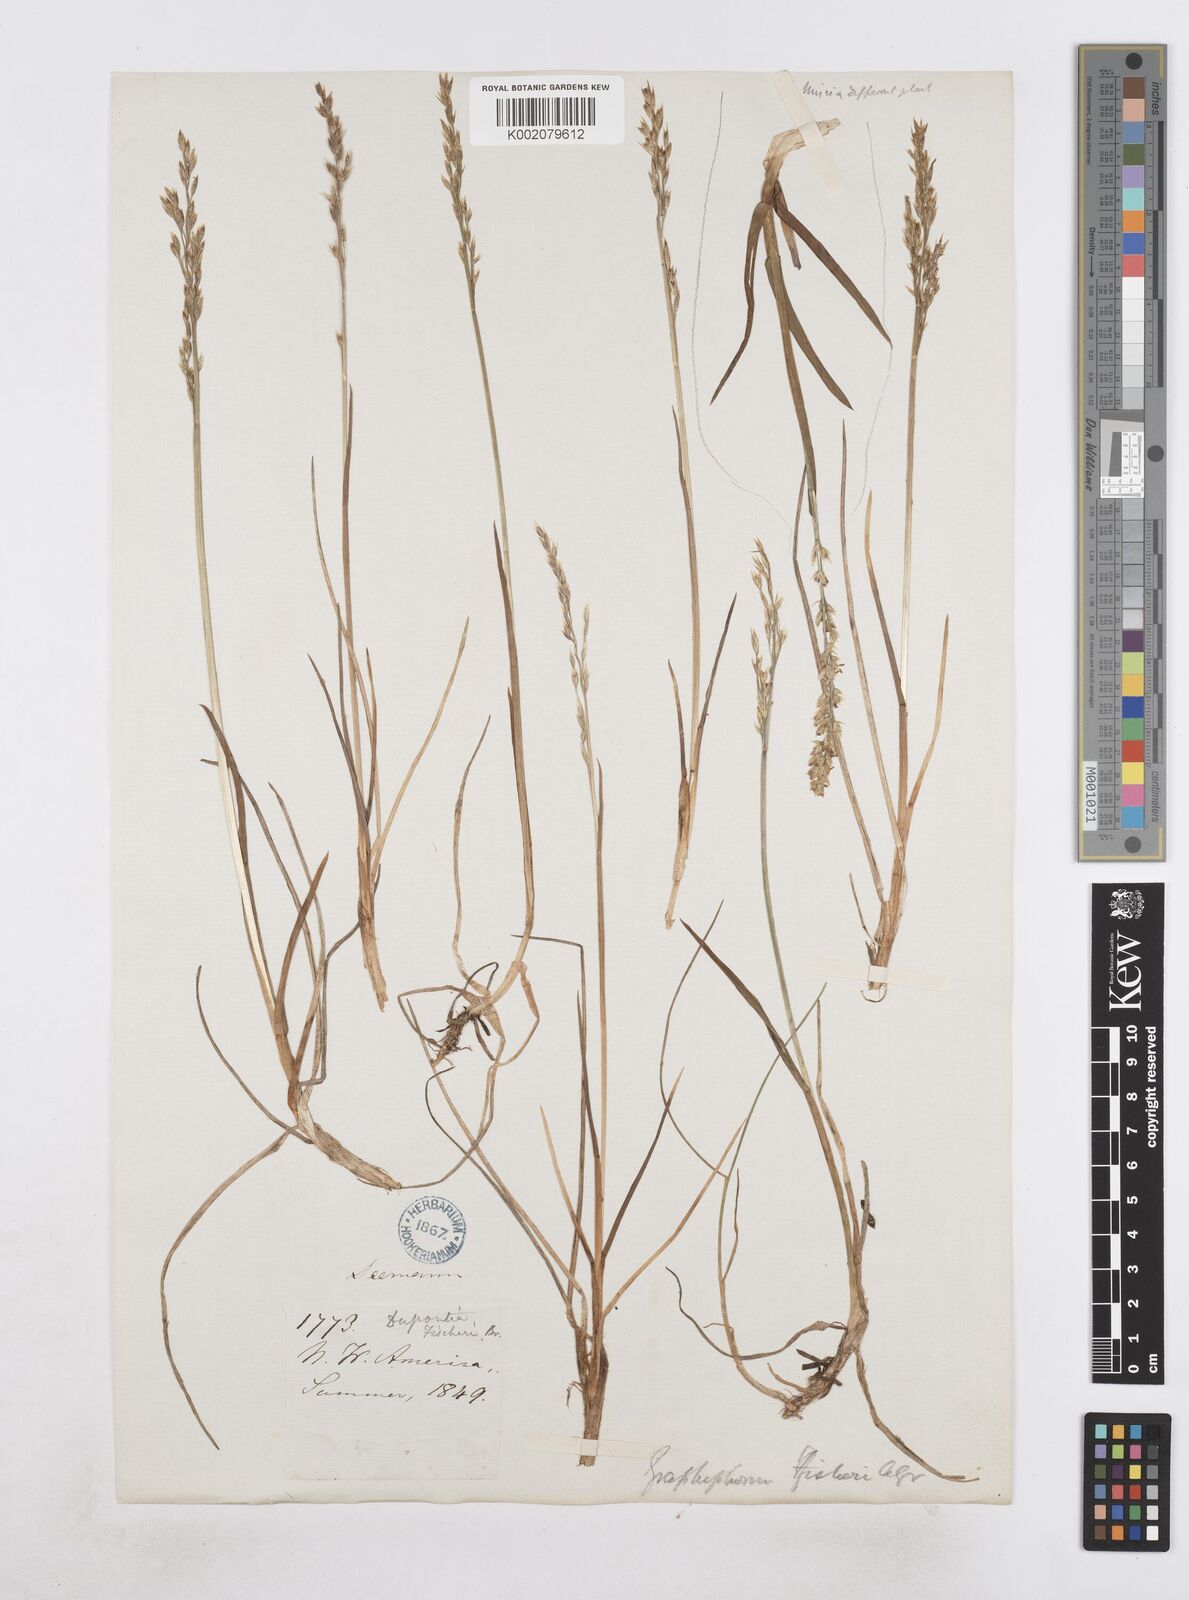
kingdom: Plantae
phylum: Tracheophyta
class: Liliopsida
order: Poales
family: Poaceae
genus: Dupontia
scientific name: Dupontia fisheri
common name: Tundra grass
